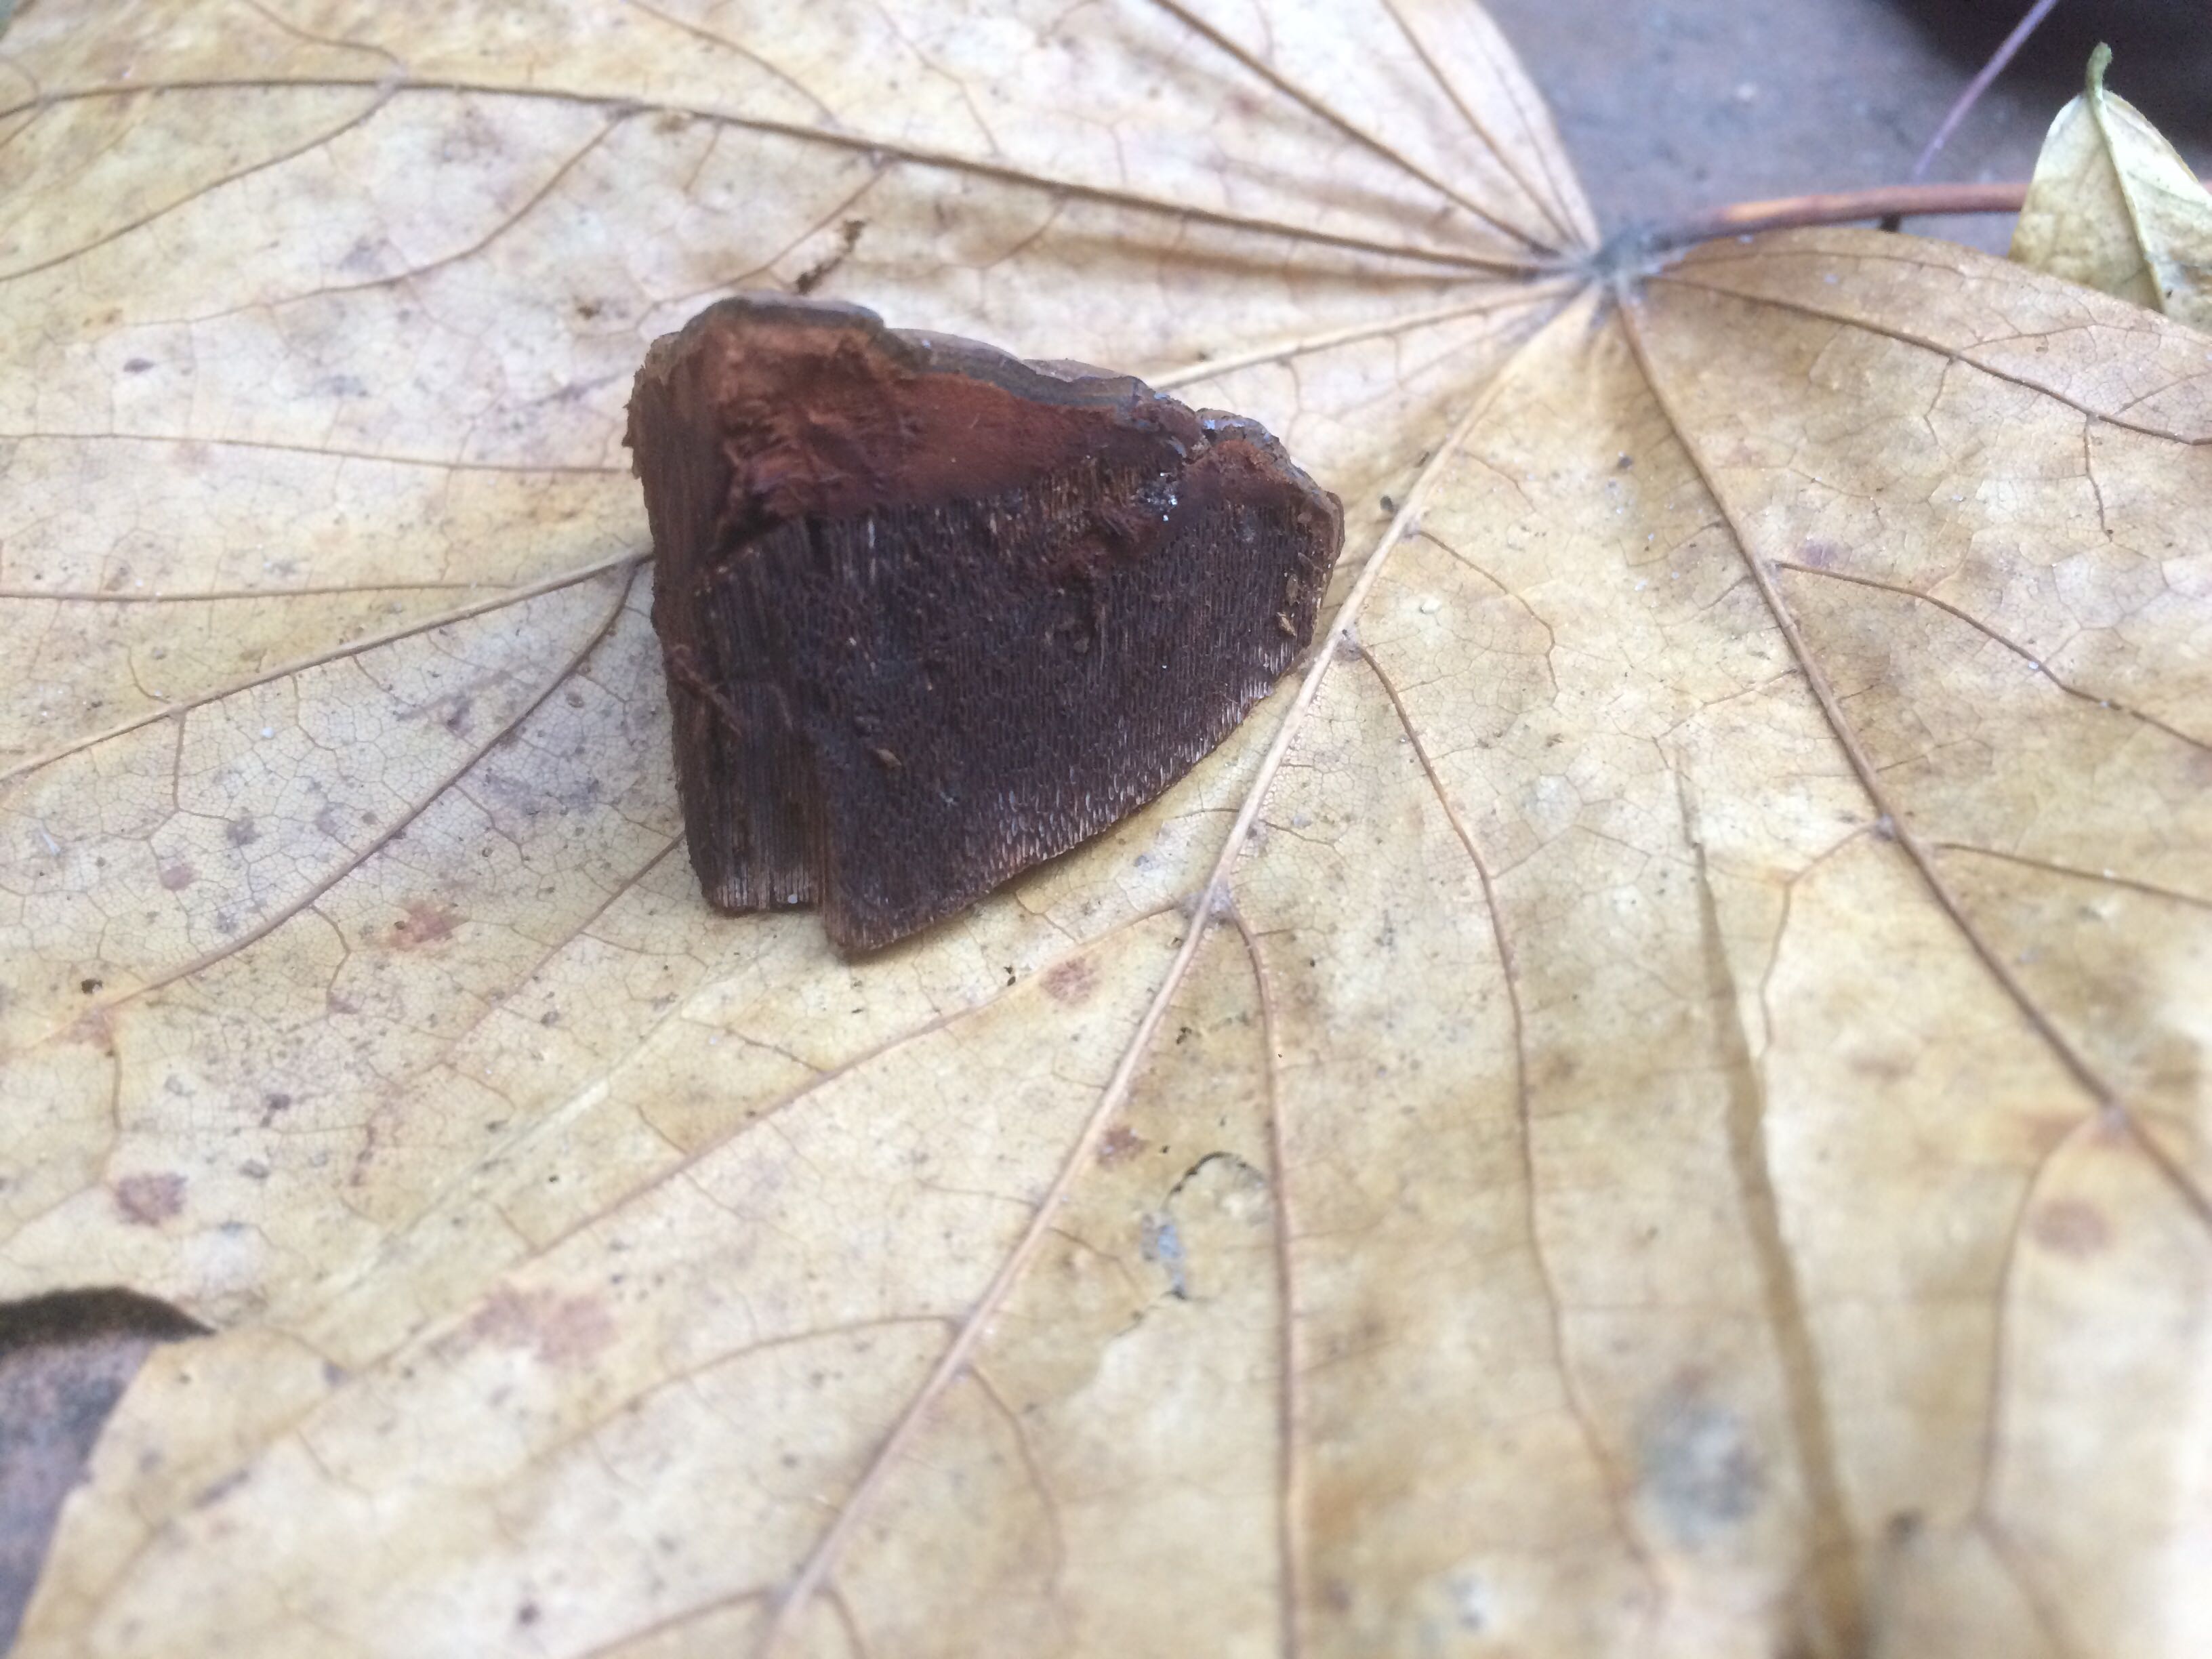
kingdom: Fungi
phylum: Basidiomycota
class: Agaricomycetes
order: Polyporales
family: Polyporaceae
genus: Ganoderma
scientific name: Ganoderma pfeifferi
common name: kobberrød lakporesvamp
